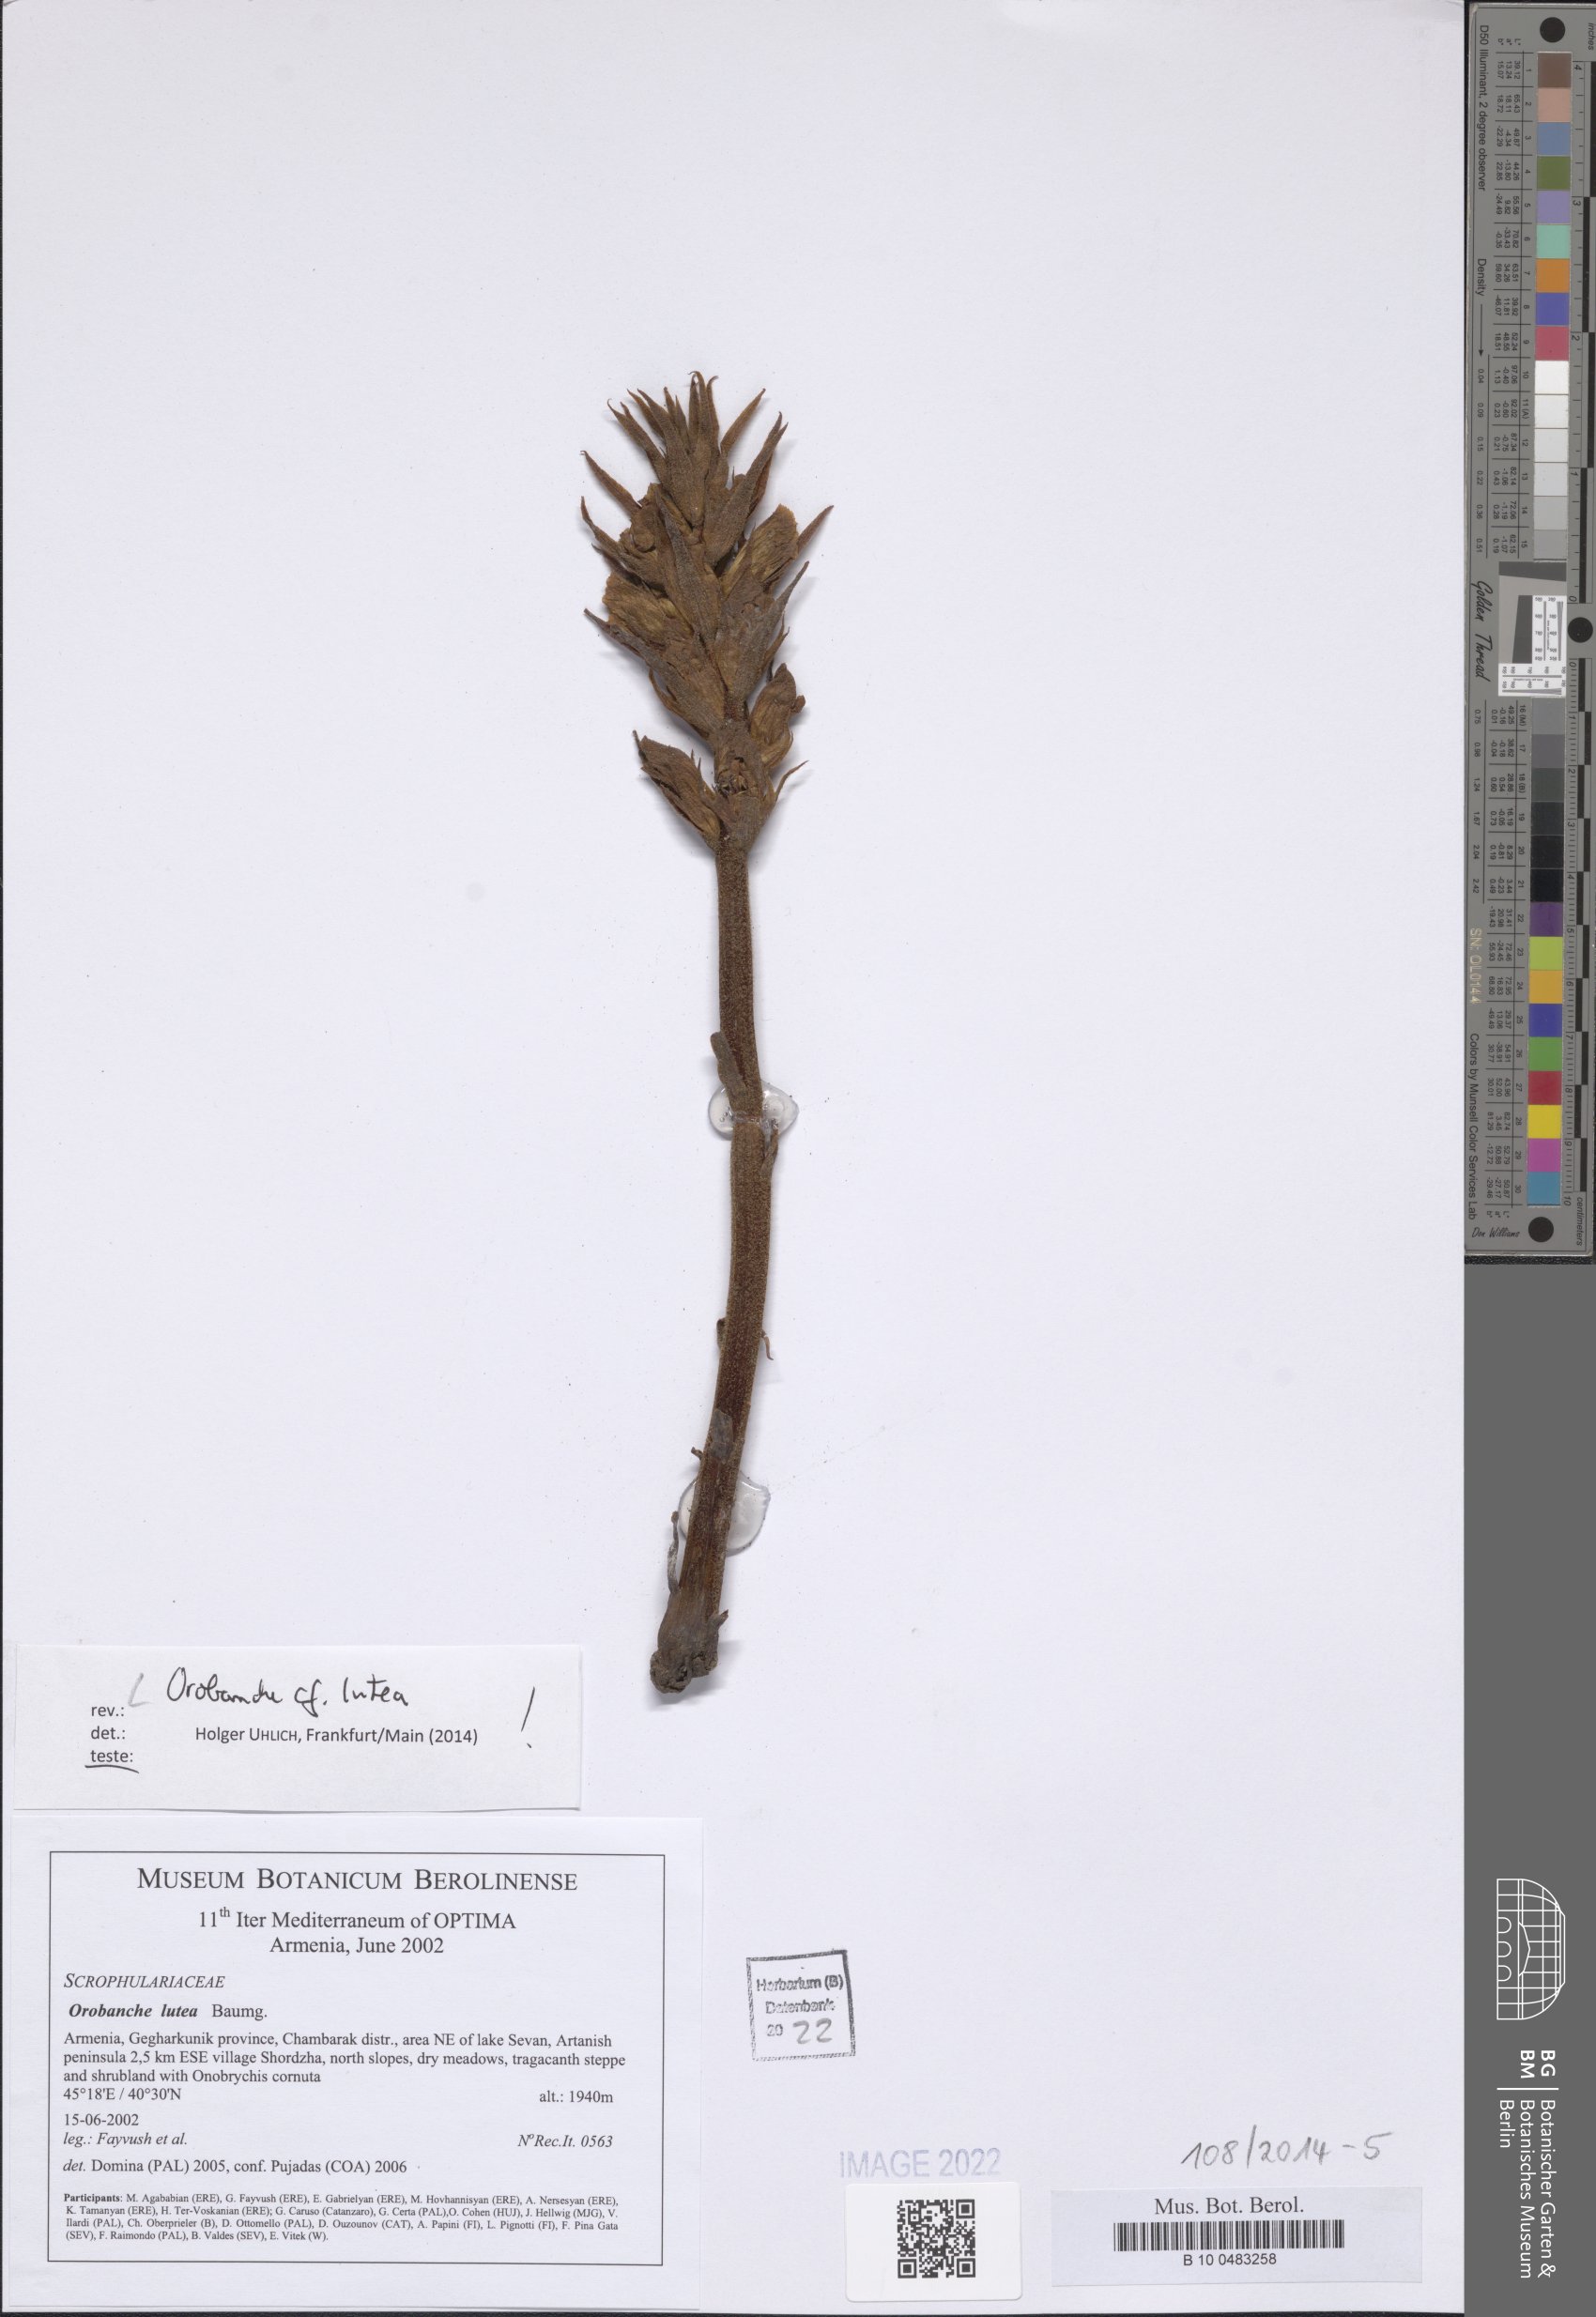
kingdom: Plantae
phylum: Tracheophyta
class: Magnoliopsida
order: Lamiales
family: Orobanchaceae
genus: Orobanche
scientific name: Orobanche lutea
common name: Yellow broomrape
